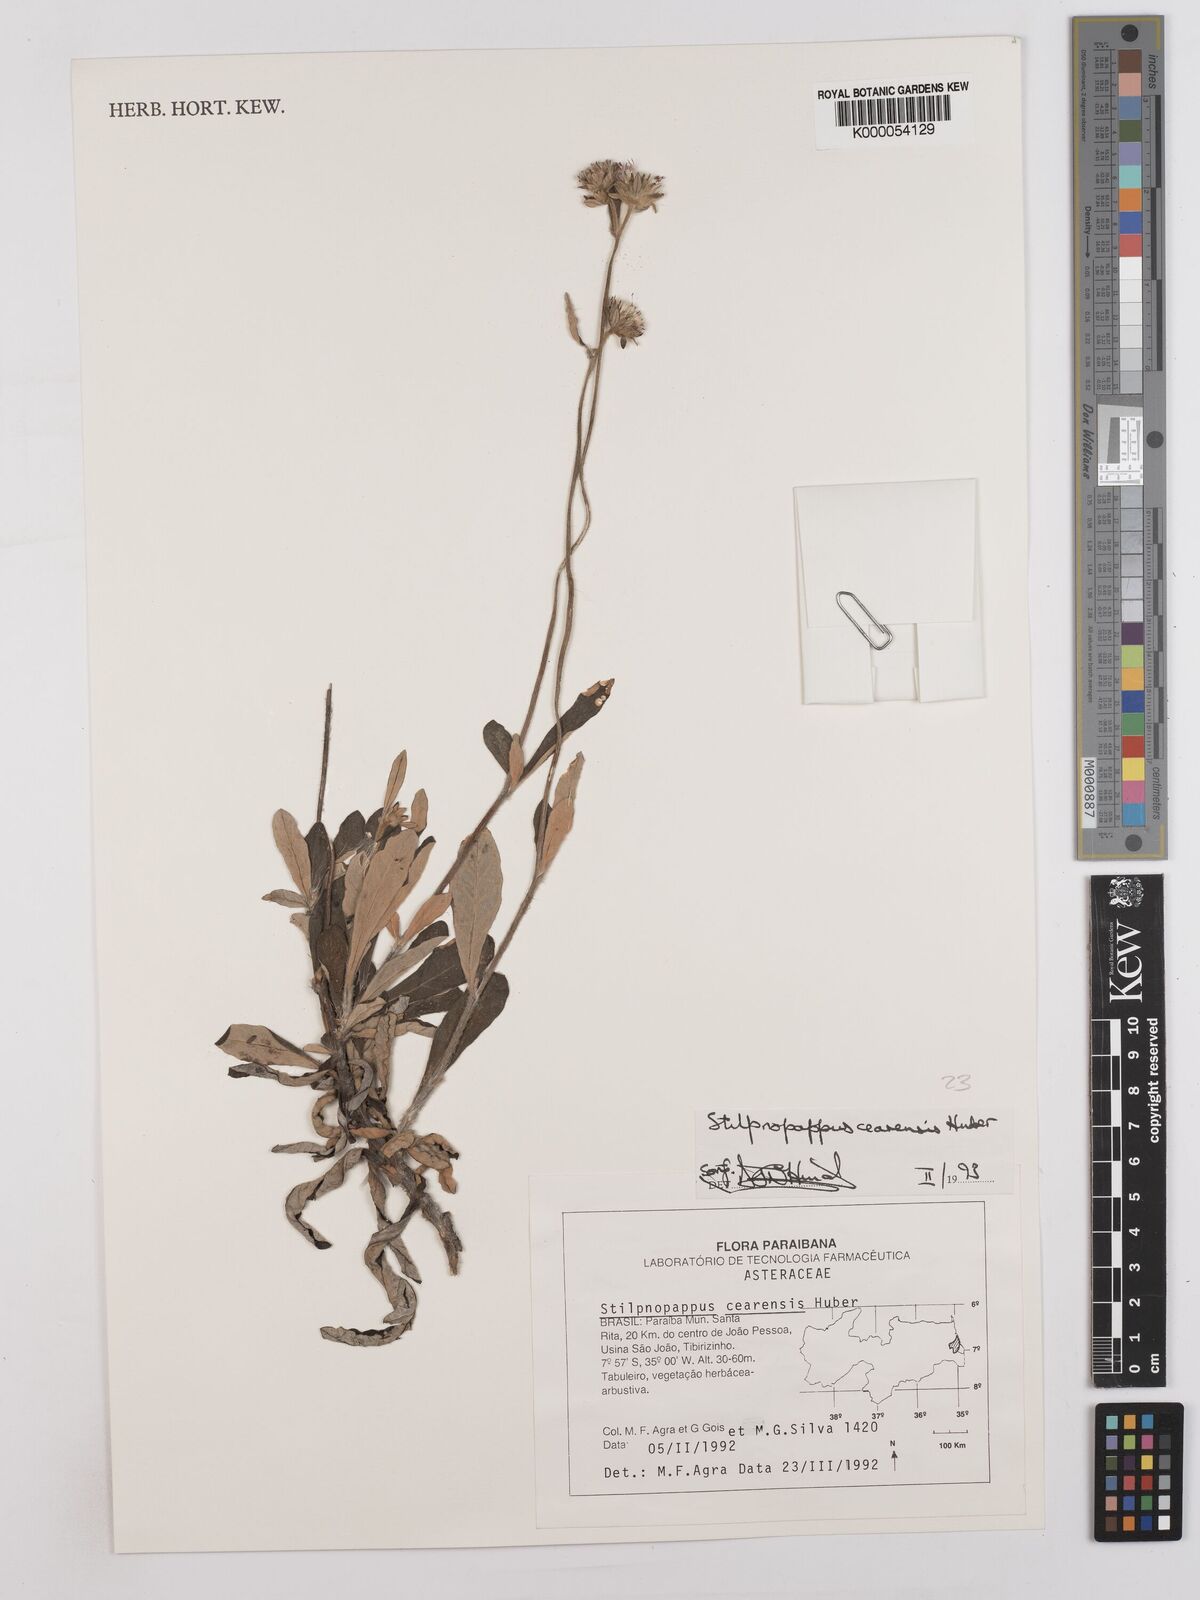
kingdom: Plantae
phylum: Tracheophyta
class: Magnoliopsida
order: Asterales
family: Asteraceae
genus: Stilpnopappus
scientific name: Stilpnopappus cearensis
